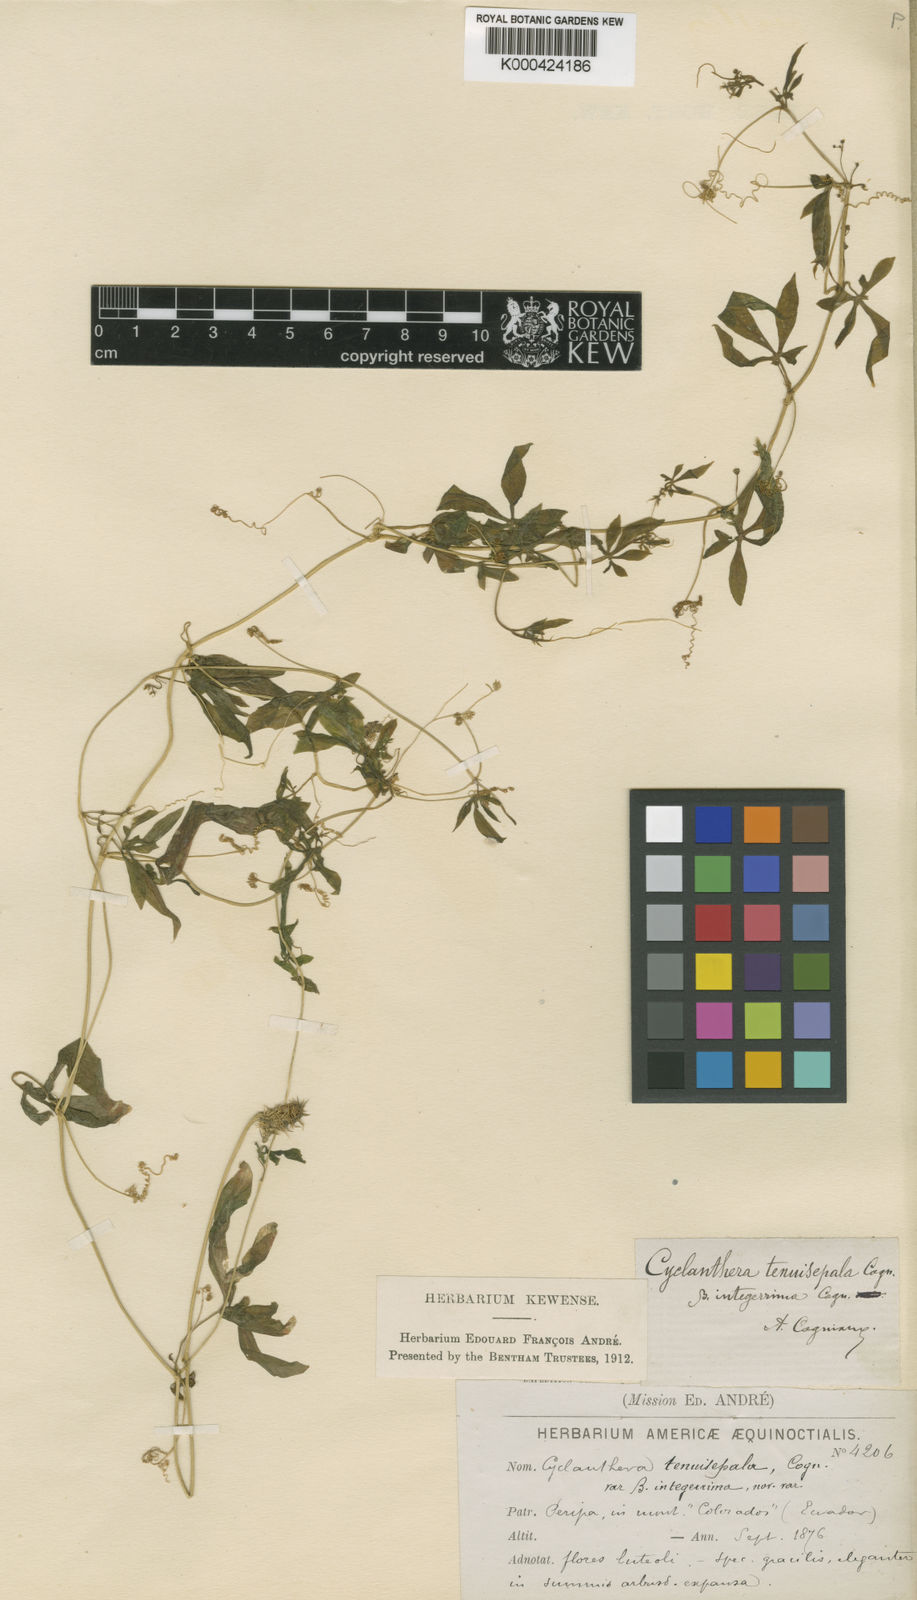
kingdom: Plantae
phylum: Tracheophyta
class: Magnoliopsida
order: Cucurbitales
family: Cucurbitaceae
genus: Cyclanthera
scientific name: Cyclanthera tenuisepala
